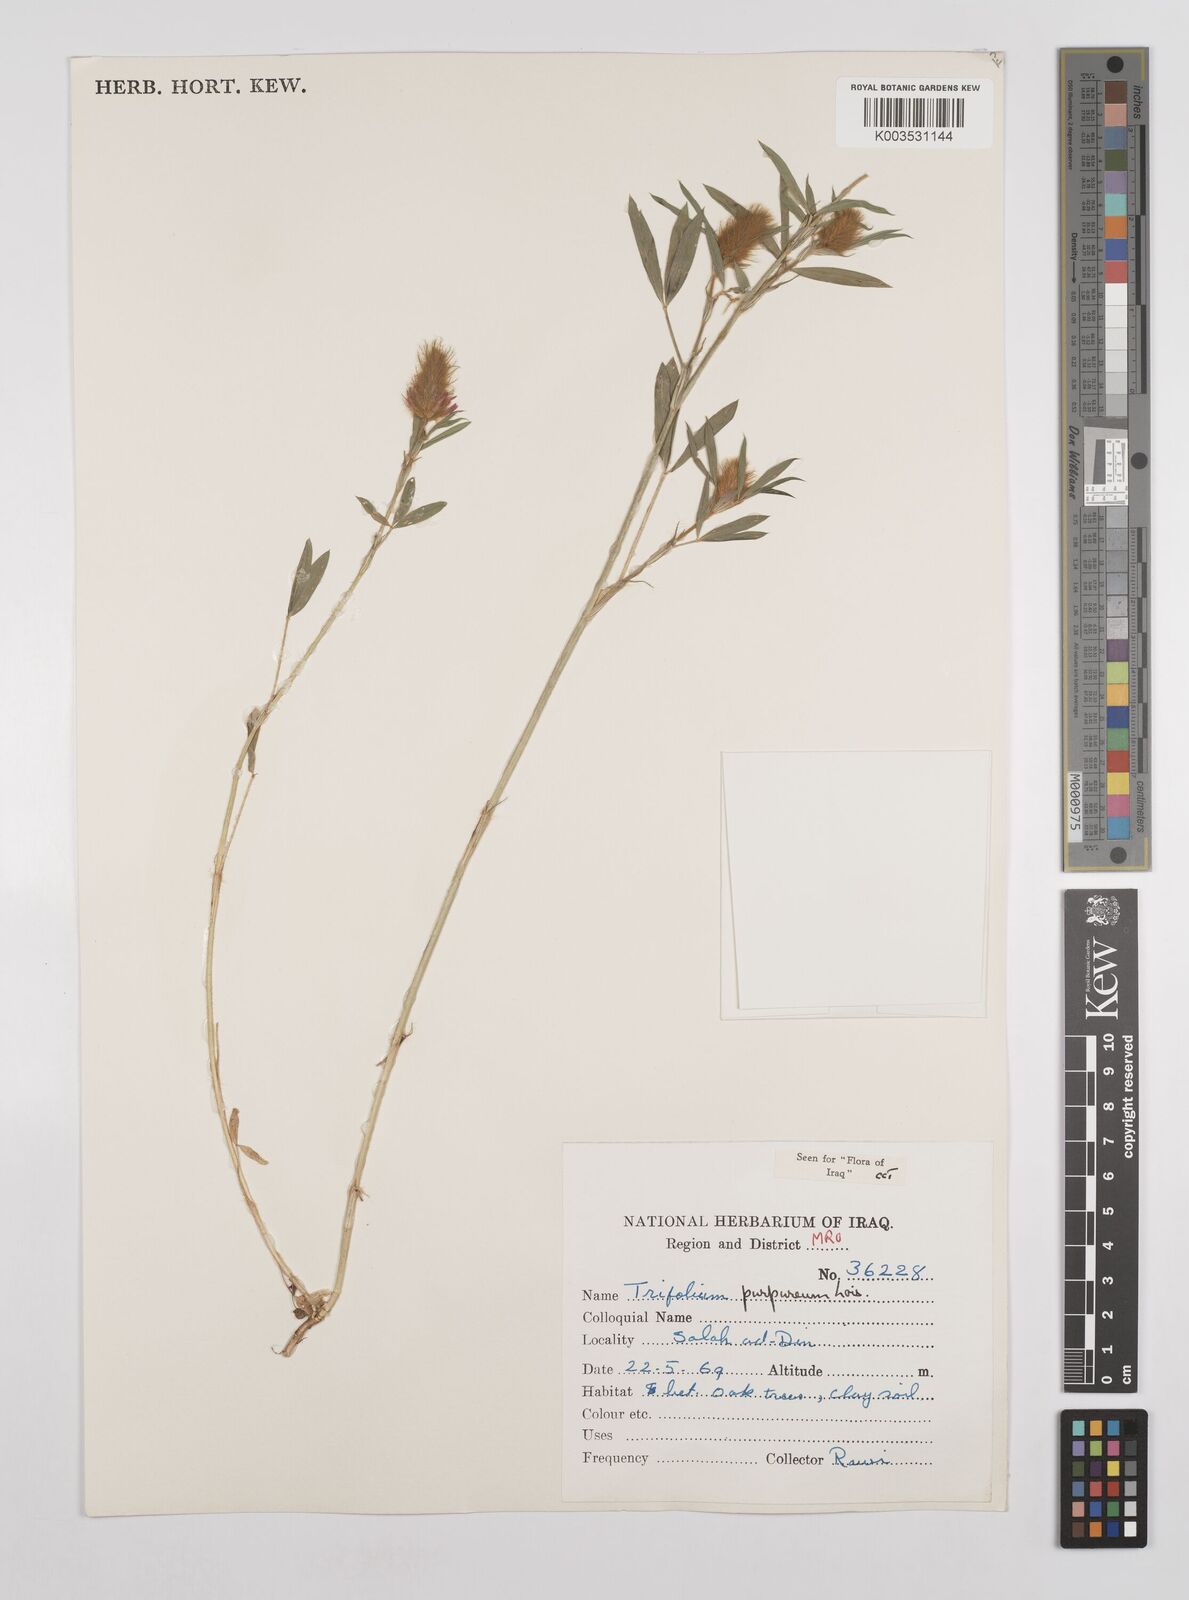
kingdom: Plantae
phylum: Tracheophyta
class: Magnoliopsida
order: Fabales
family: Fabaceae
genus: Trifolium
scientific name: Trifolium purpureum
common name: Purple clover
